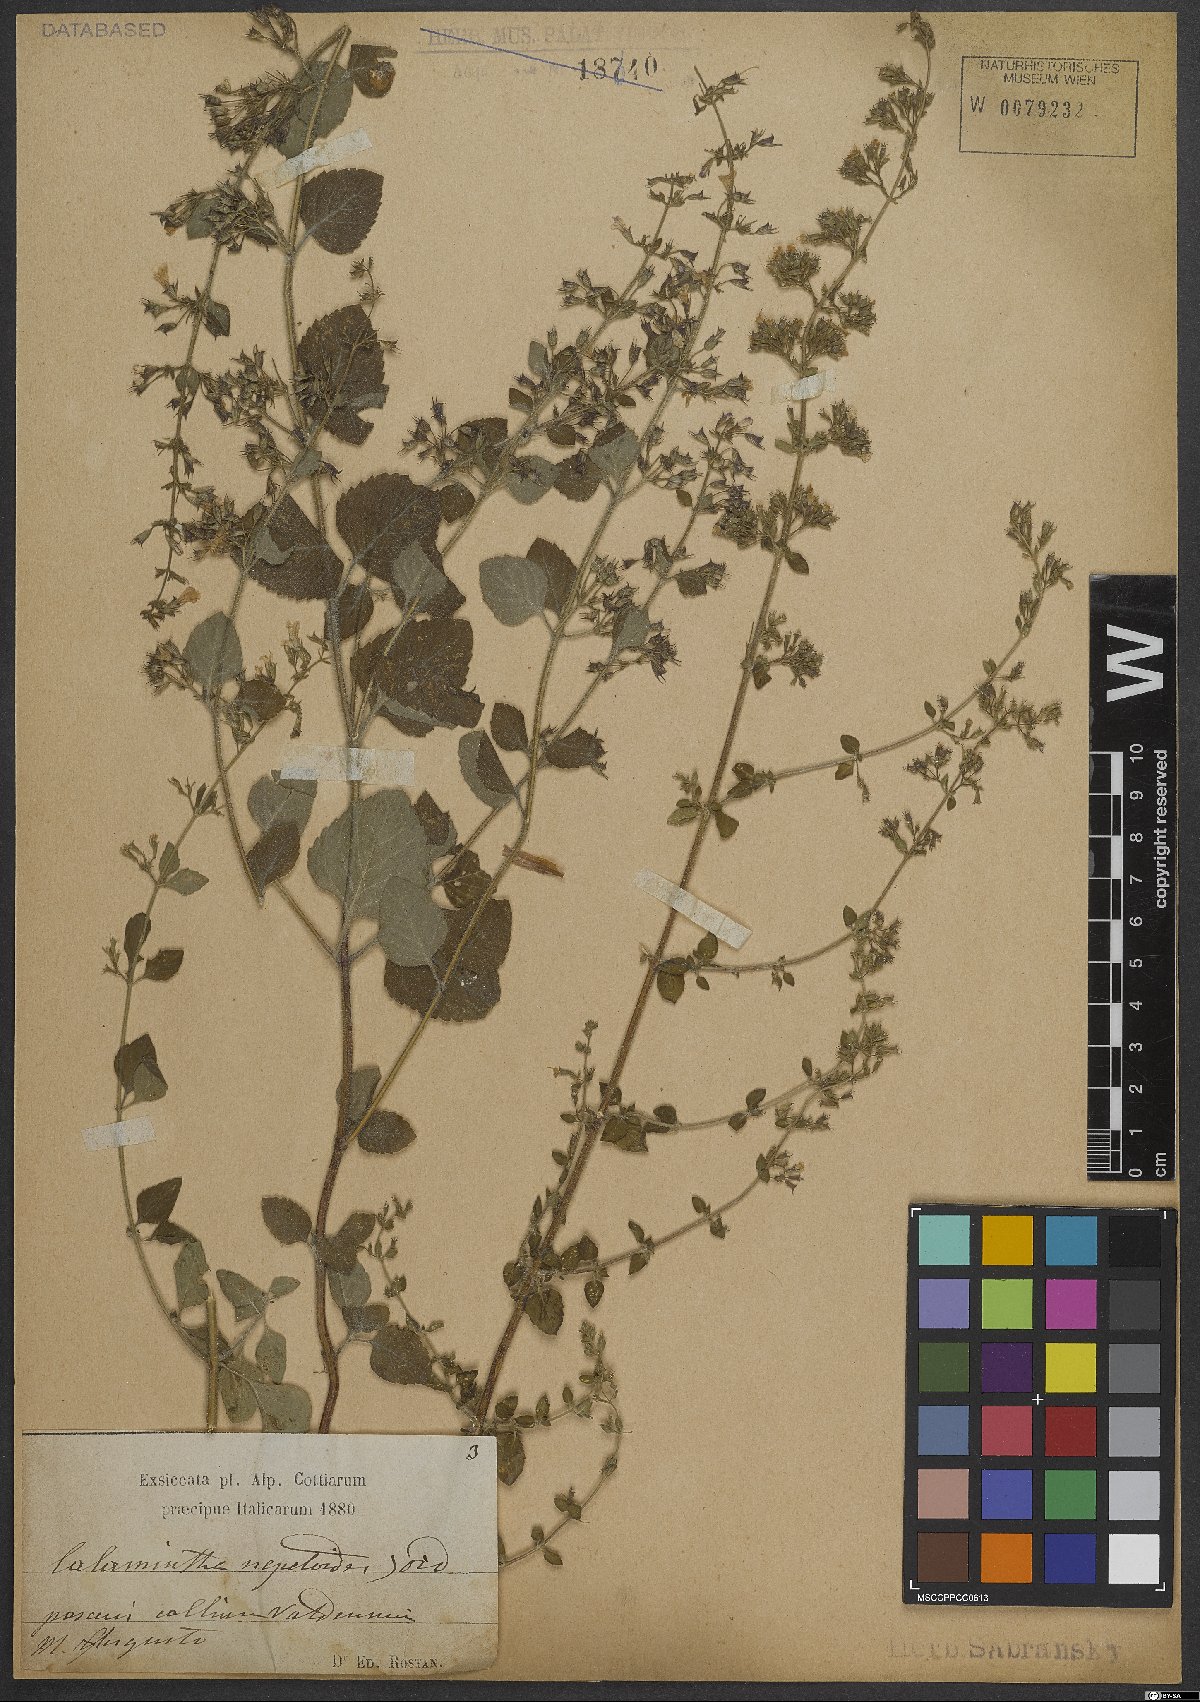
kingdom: Plantae
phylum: Tracheophyta
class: Magnoliopsida
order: Lamiales
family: Lamiaceae
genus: Clinopodium
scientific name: Clinopodium nepeta
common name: Lesser calamint
